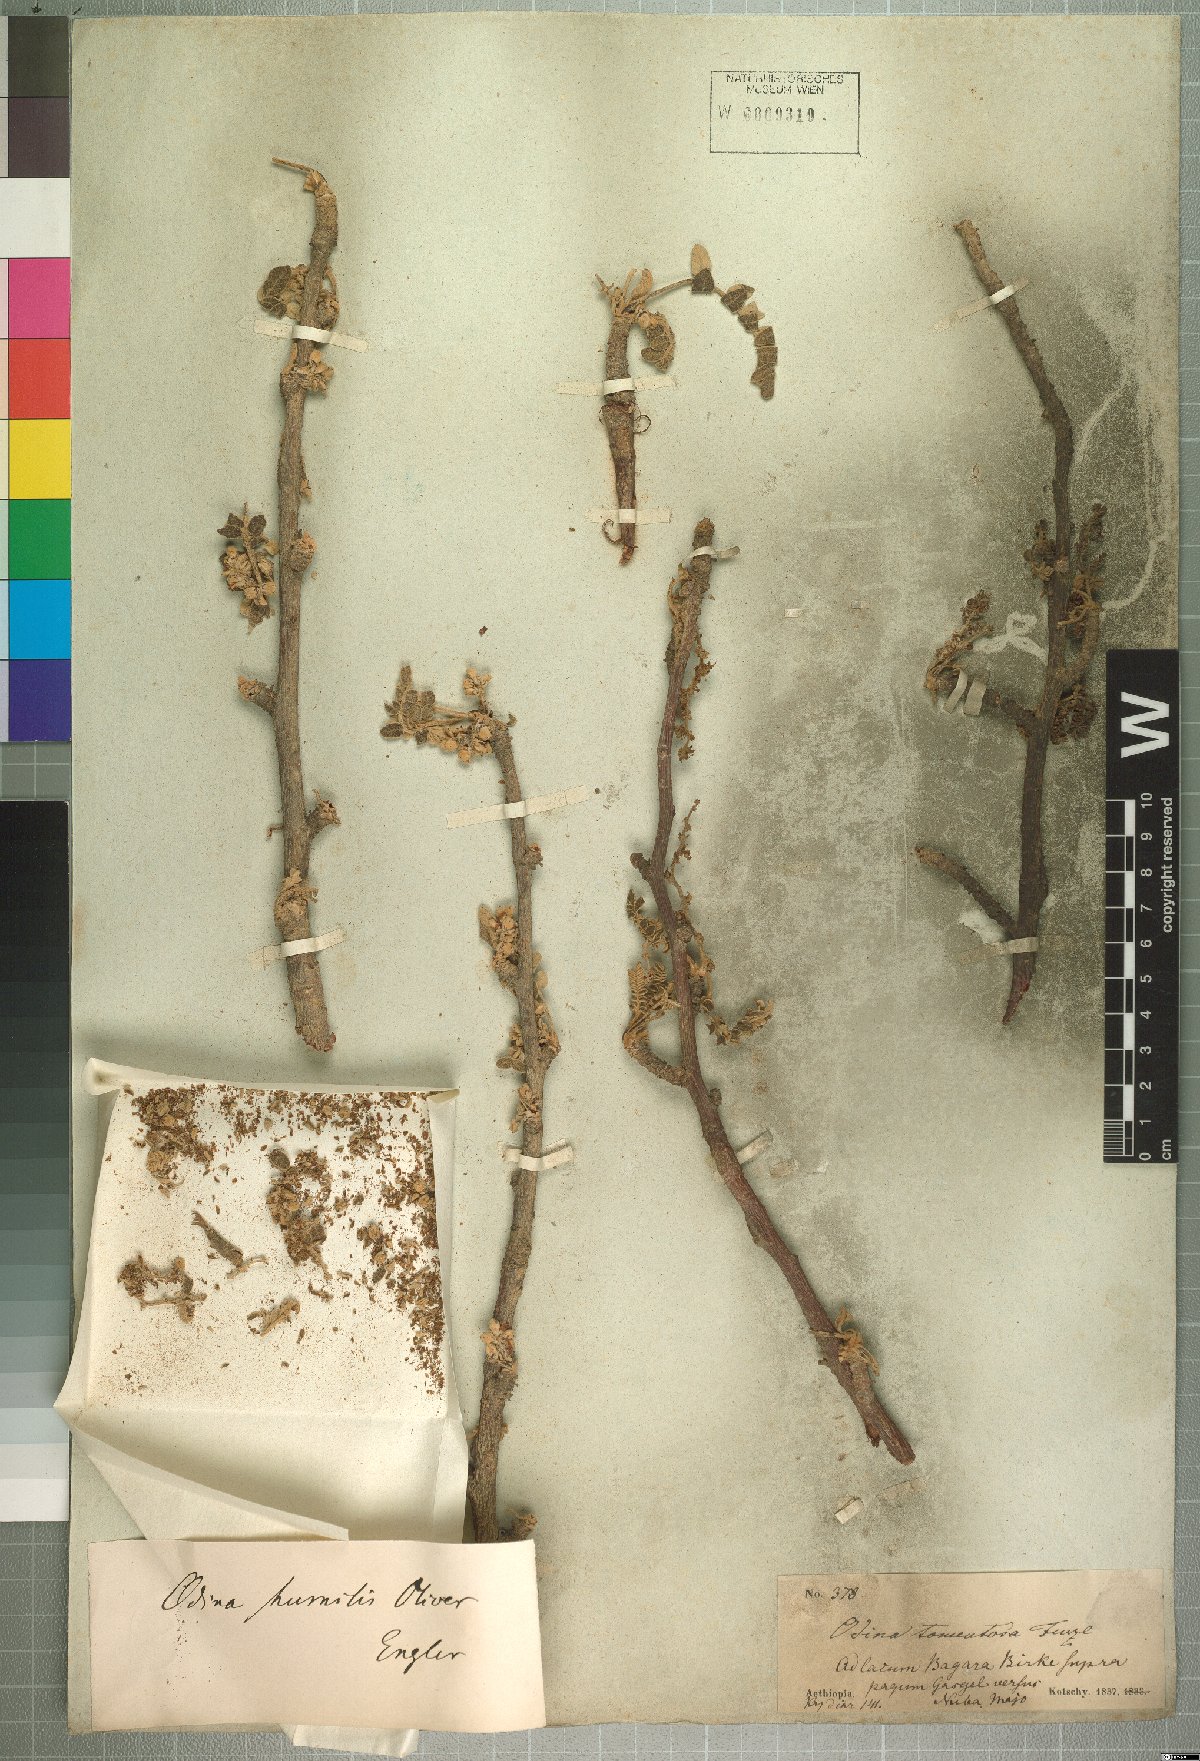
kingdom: Plantae
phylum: Tracheophyta
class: Magnoliopsida
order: Sapindales
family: Anacardiaceae
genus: Lannea
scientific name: Lannea humilis
